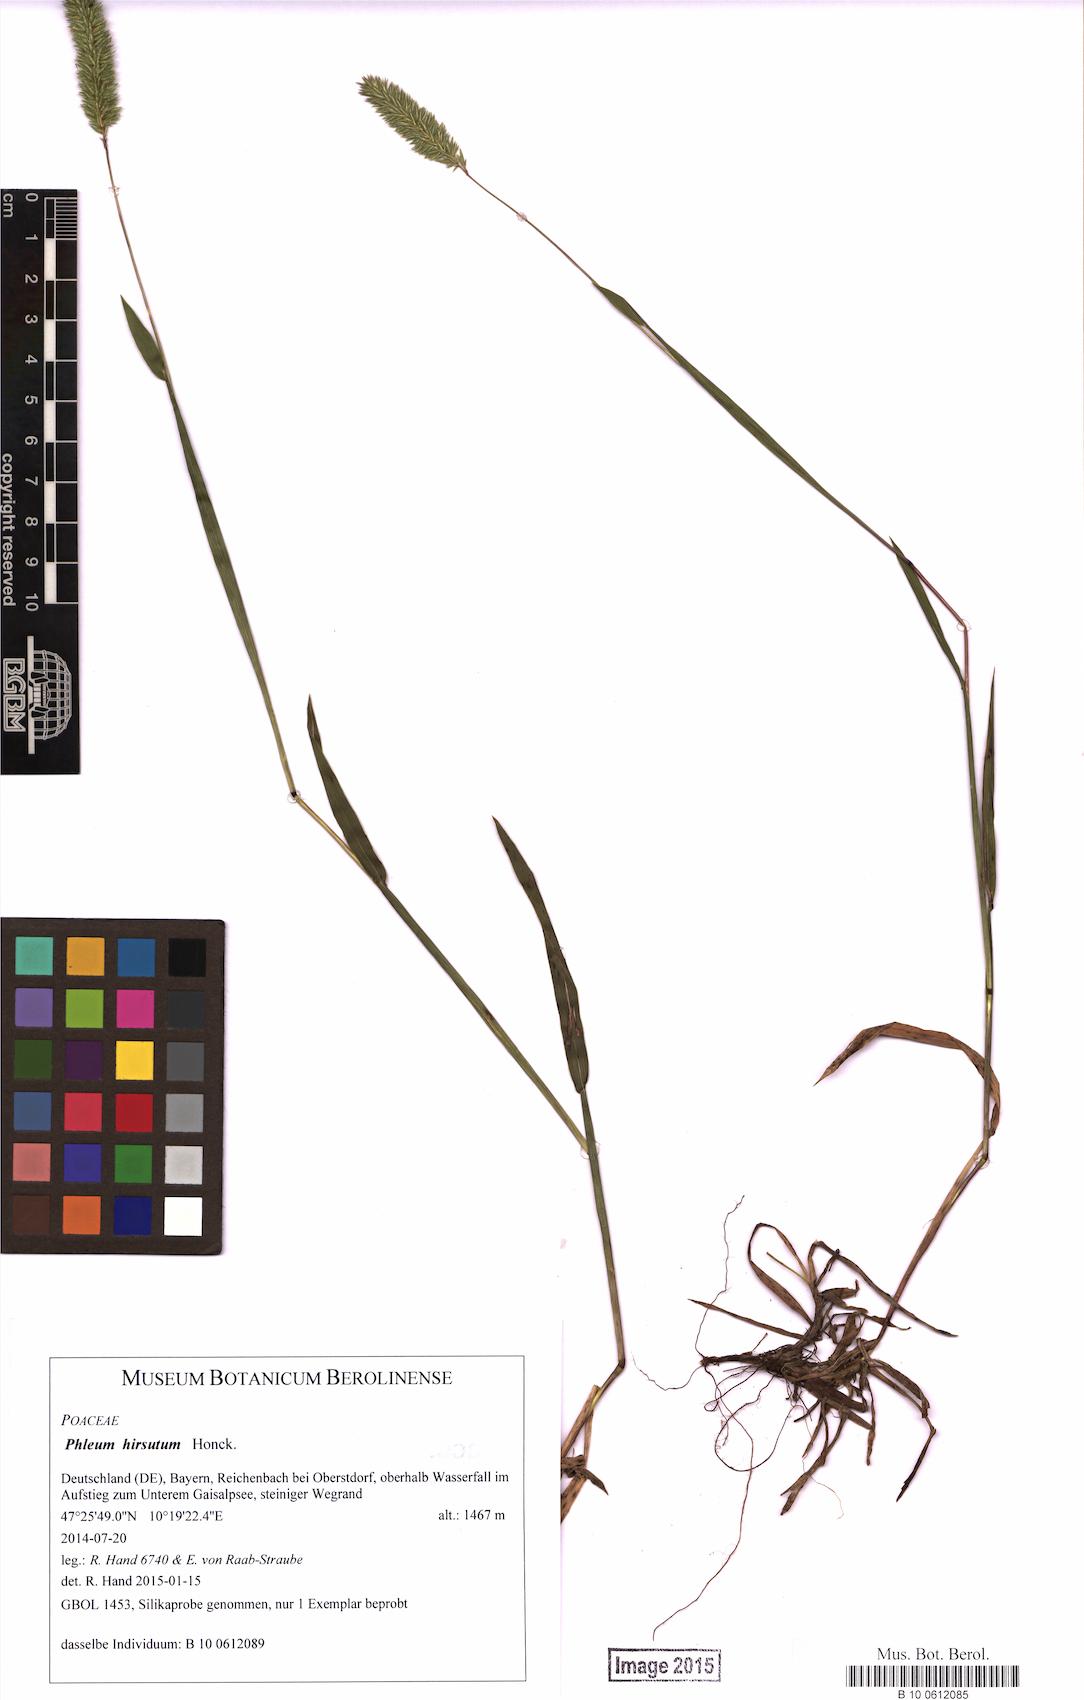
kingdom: Plantae
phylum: Tracheophyta
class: Liliopsida
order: Poales
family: Poaceae
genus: Phleum
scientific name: Phleum hirsutum
